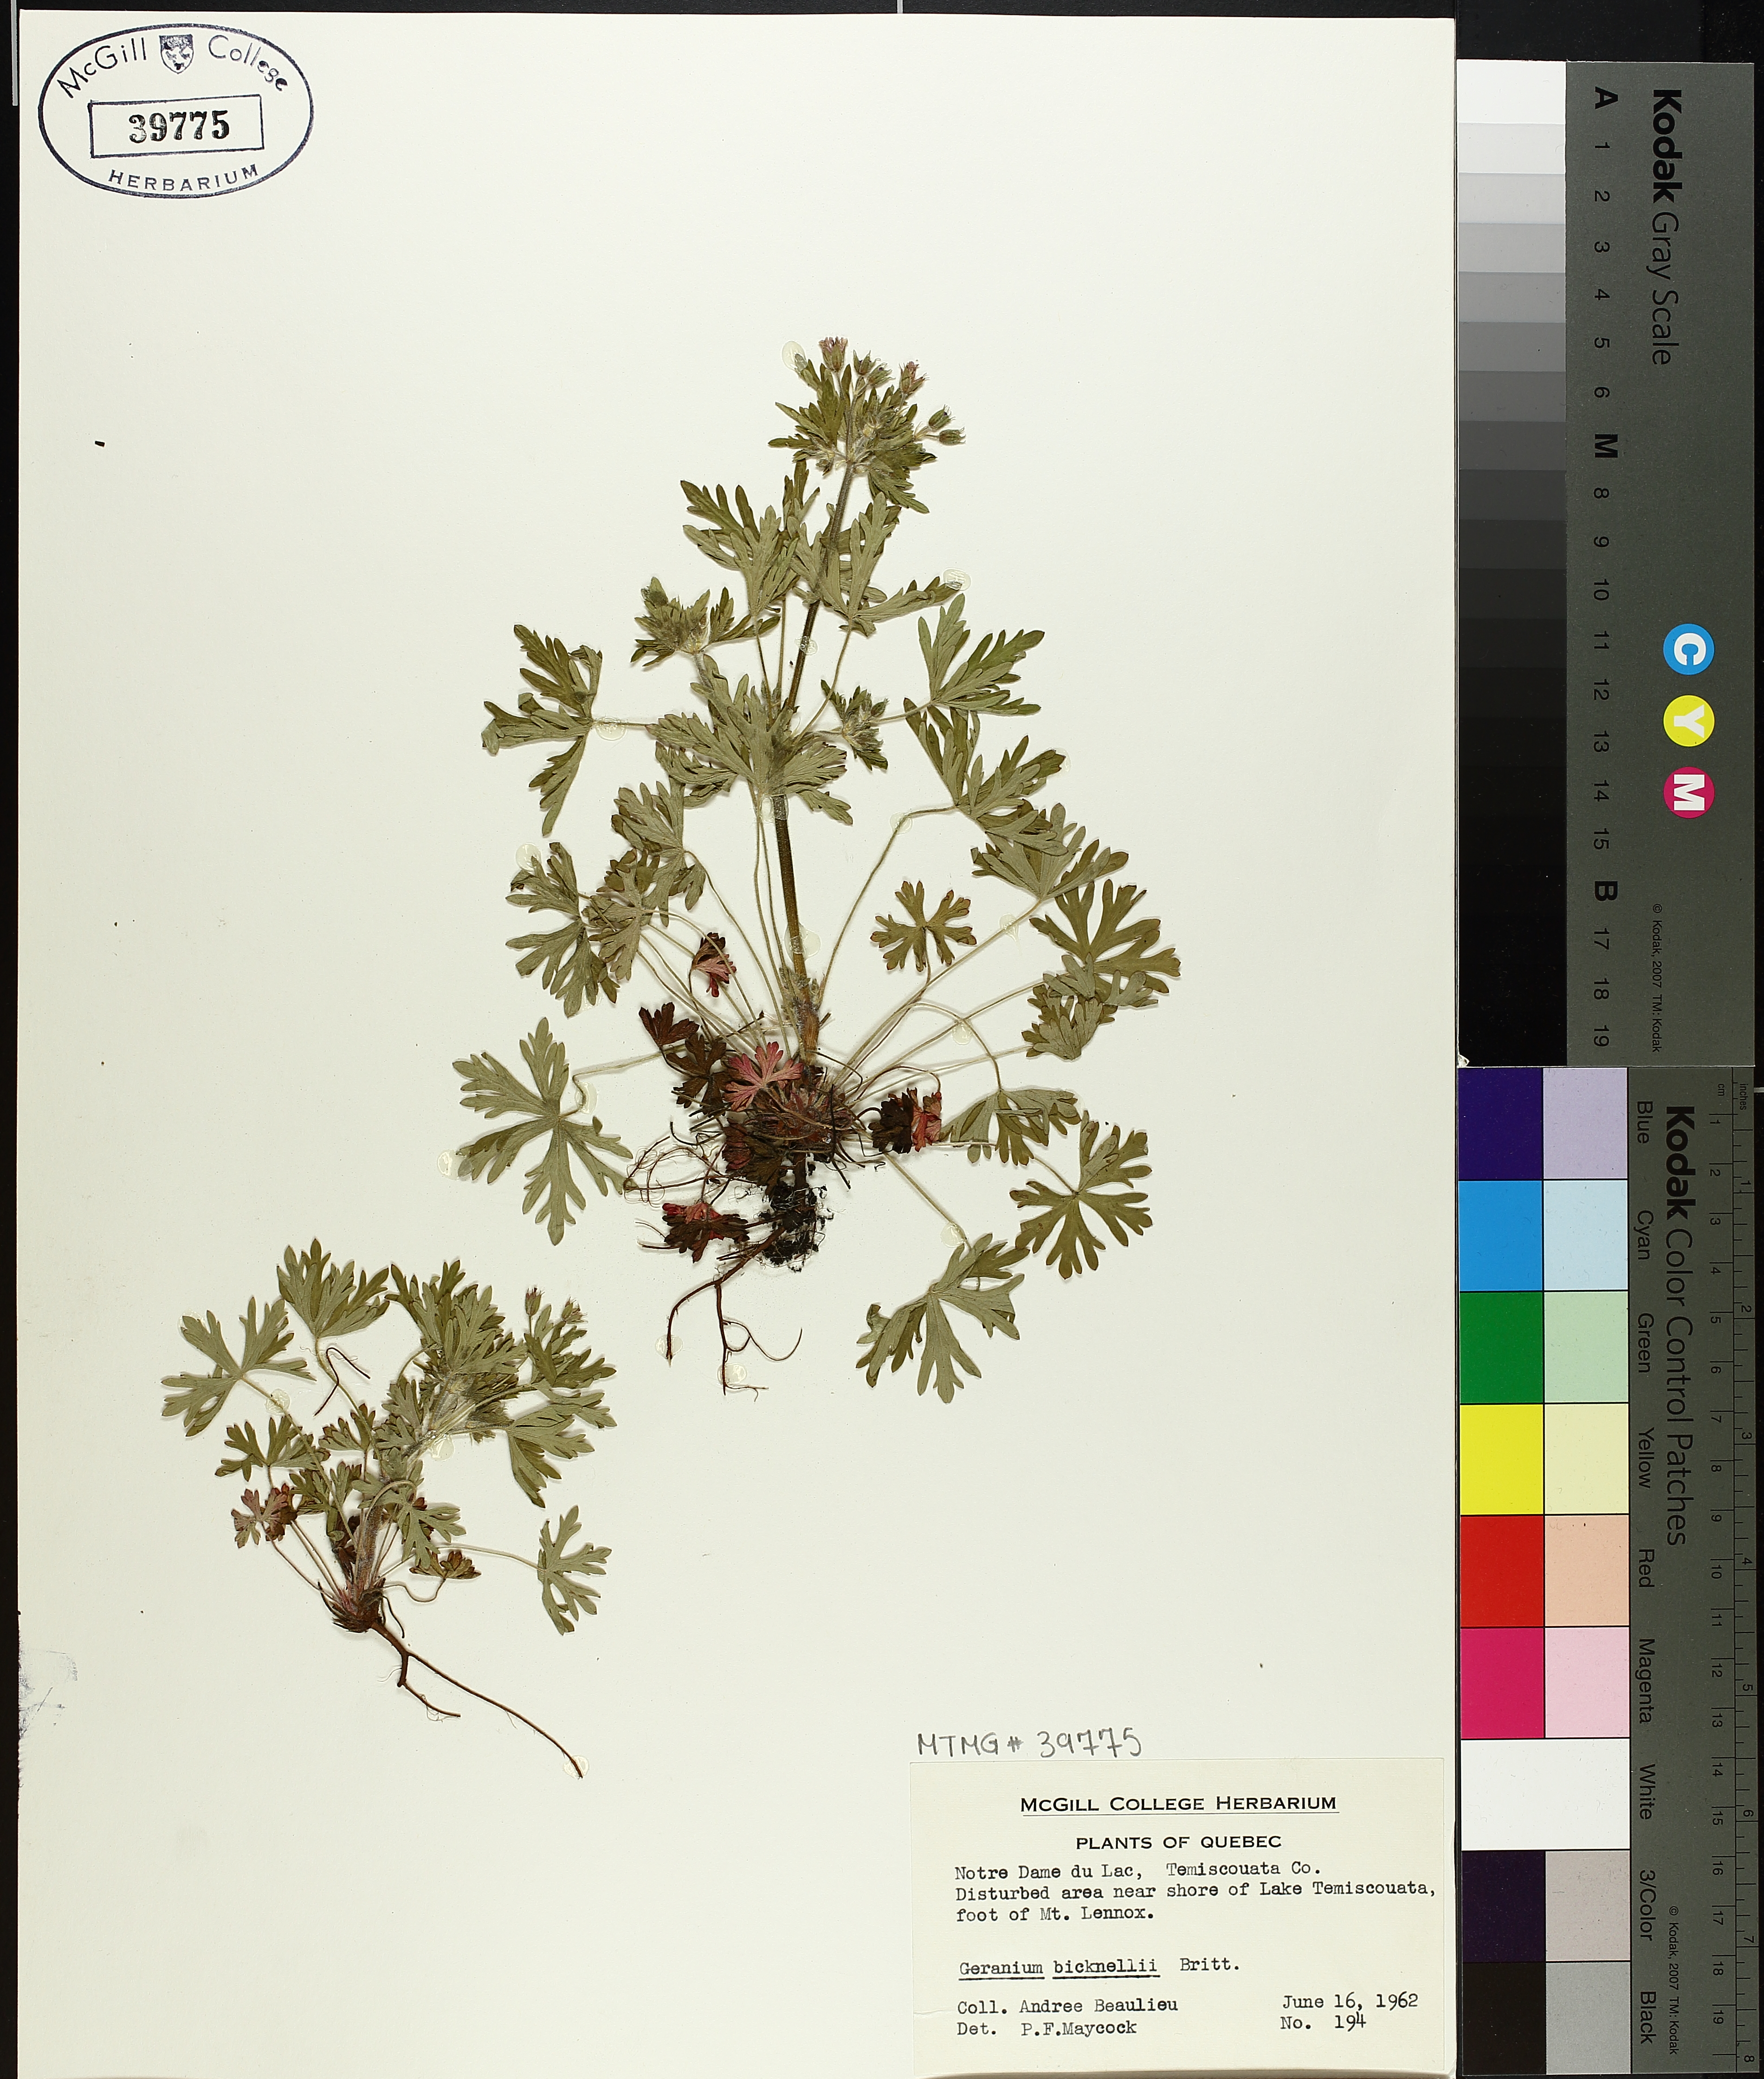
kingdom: Plantae
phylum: Tracheophyta
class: Magnoliopsida
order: Geraniales
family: Geraniaceae
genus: Geranium
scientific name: Geranium bicknellii
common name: Bicknell's cranesbill
